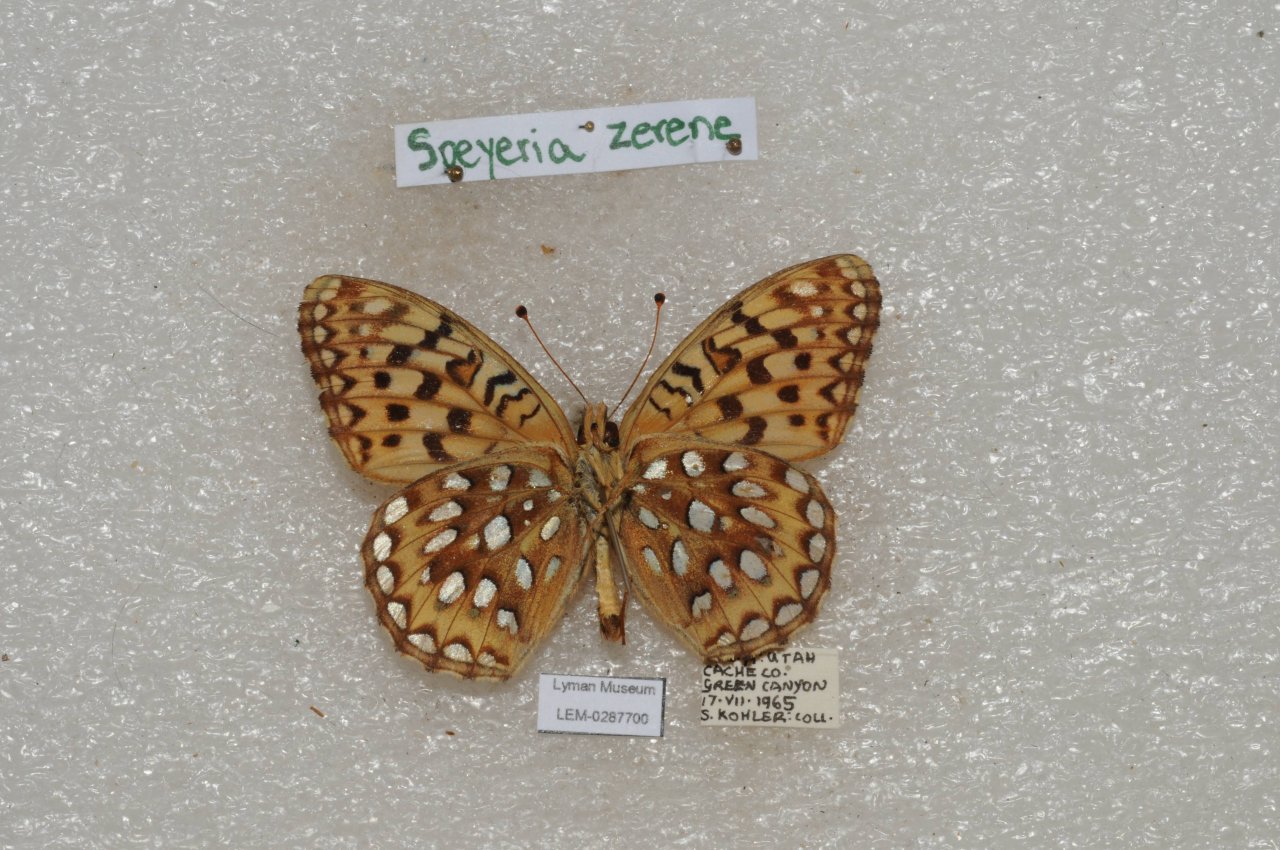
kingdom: Animalia
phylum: Arthropoda
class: Insecta
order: Lepidoptera
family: Nymphalidae
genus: Speyeria
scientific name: Speyeria zerene
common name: Zerene Fritillary
